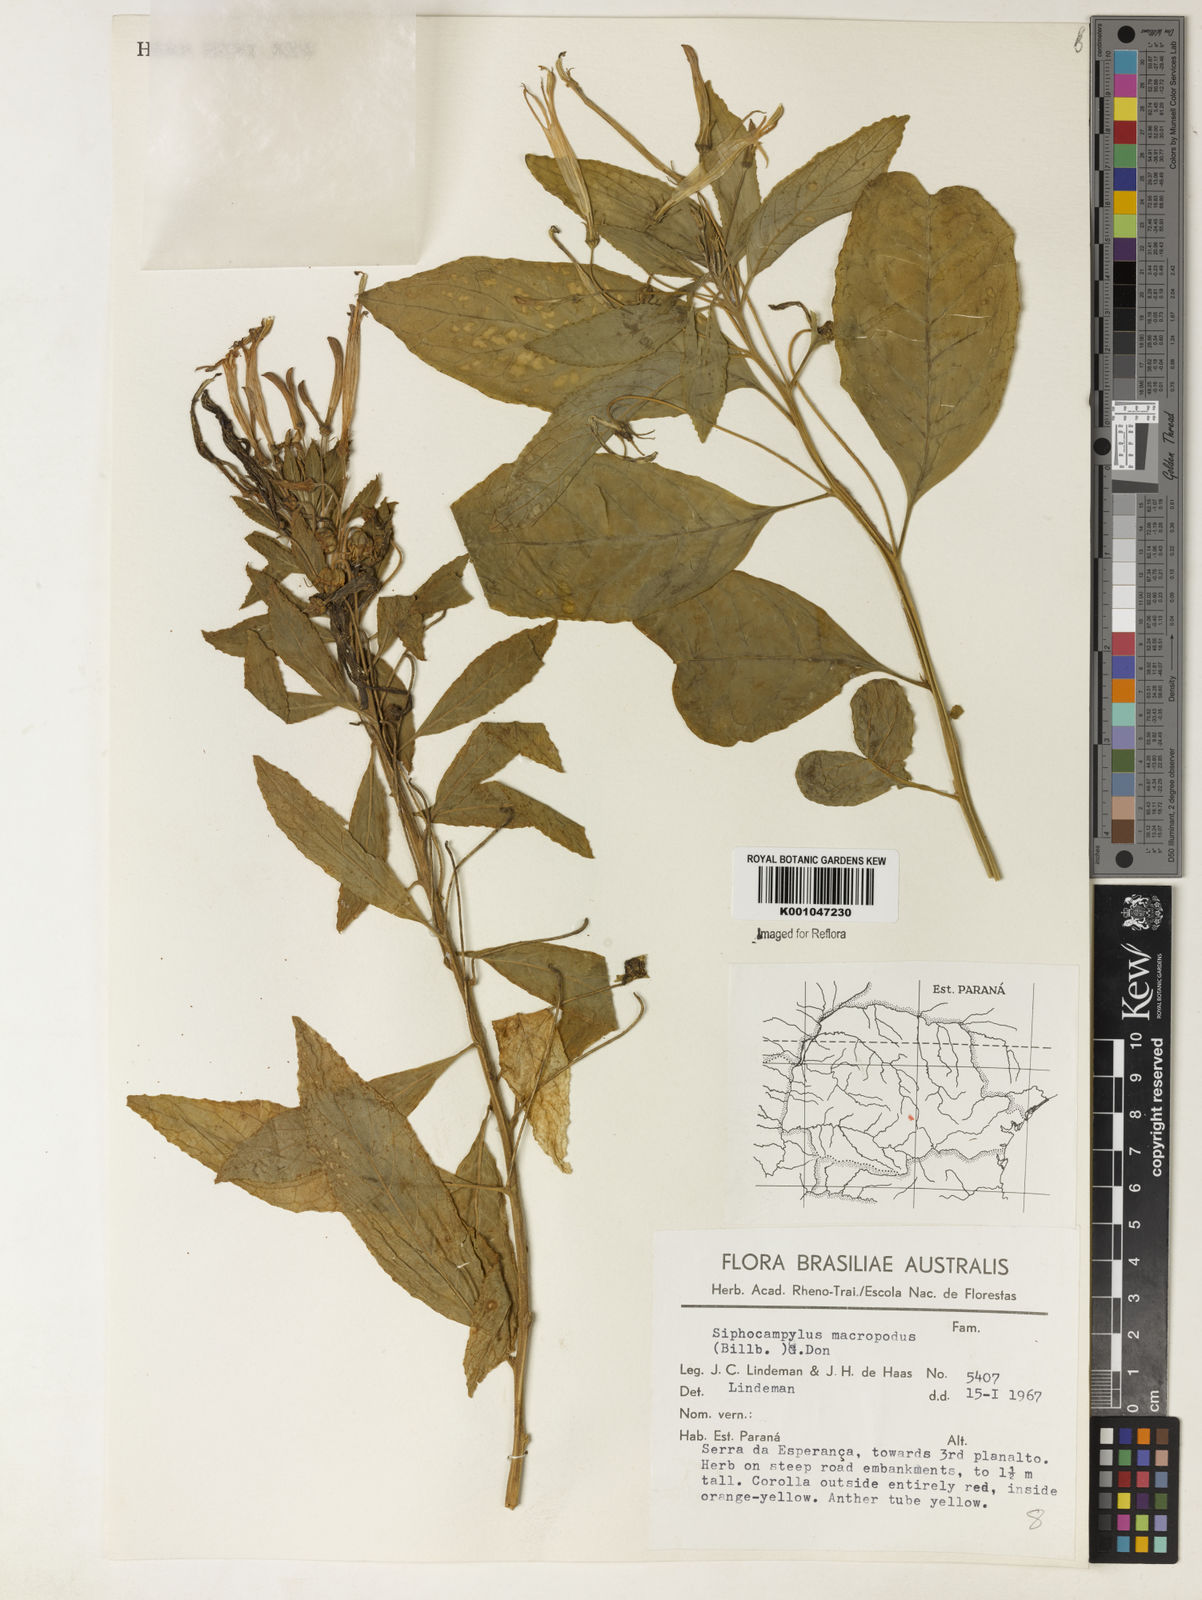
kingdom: Plantae
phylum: Tracheophyta
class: Magnoliopsida
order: Asterales
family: Campanulaceae
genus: Siphocampylus
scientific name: Siphocampylus macropodus
